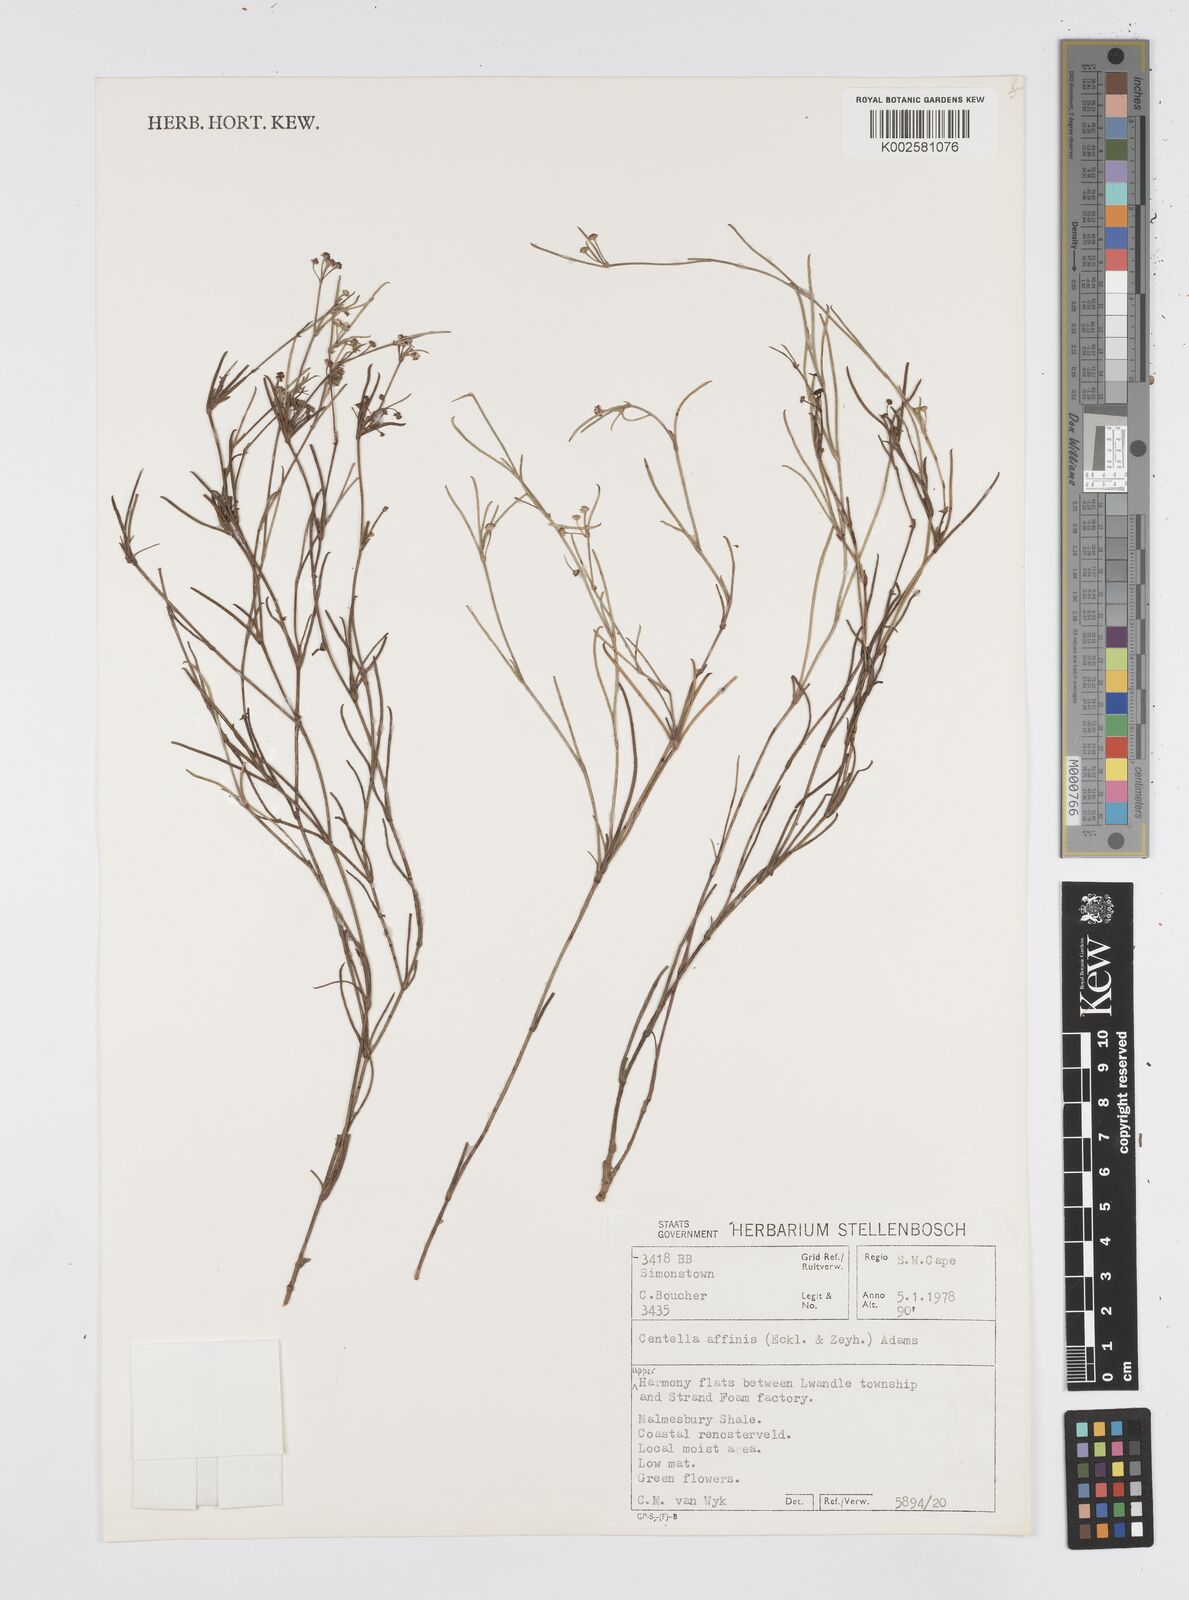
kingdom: Plantae
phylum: Tracheophyta
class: Magnoliopsida
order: Apiales
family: Apiaceae
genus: Centella
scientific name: Centella affinis
